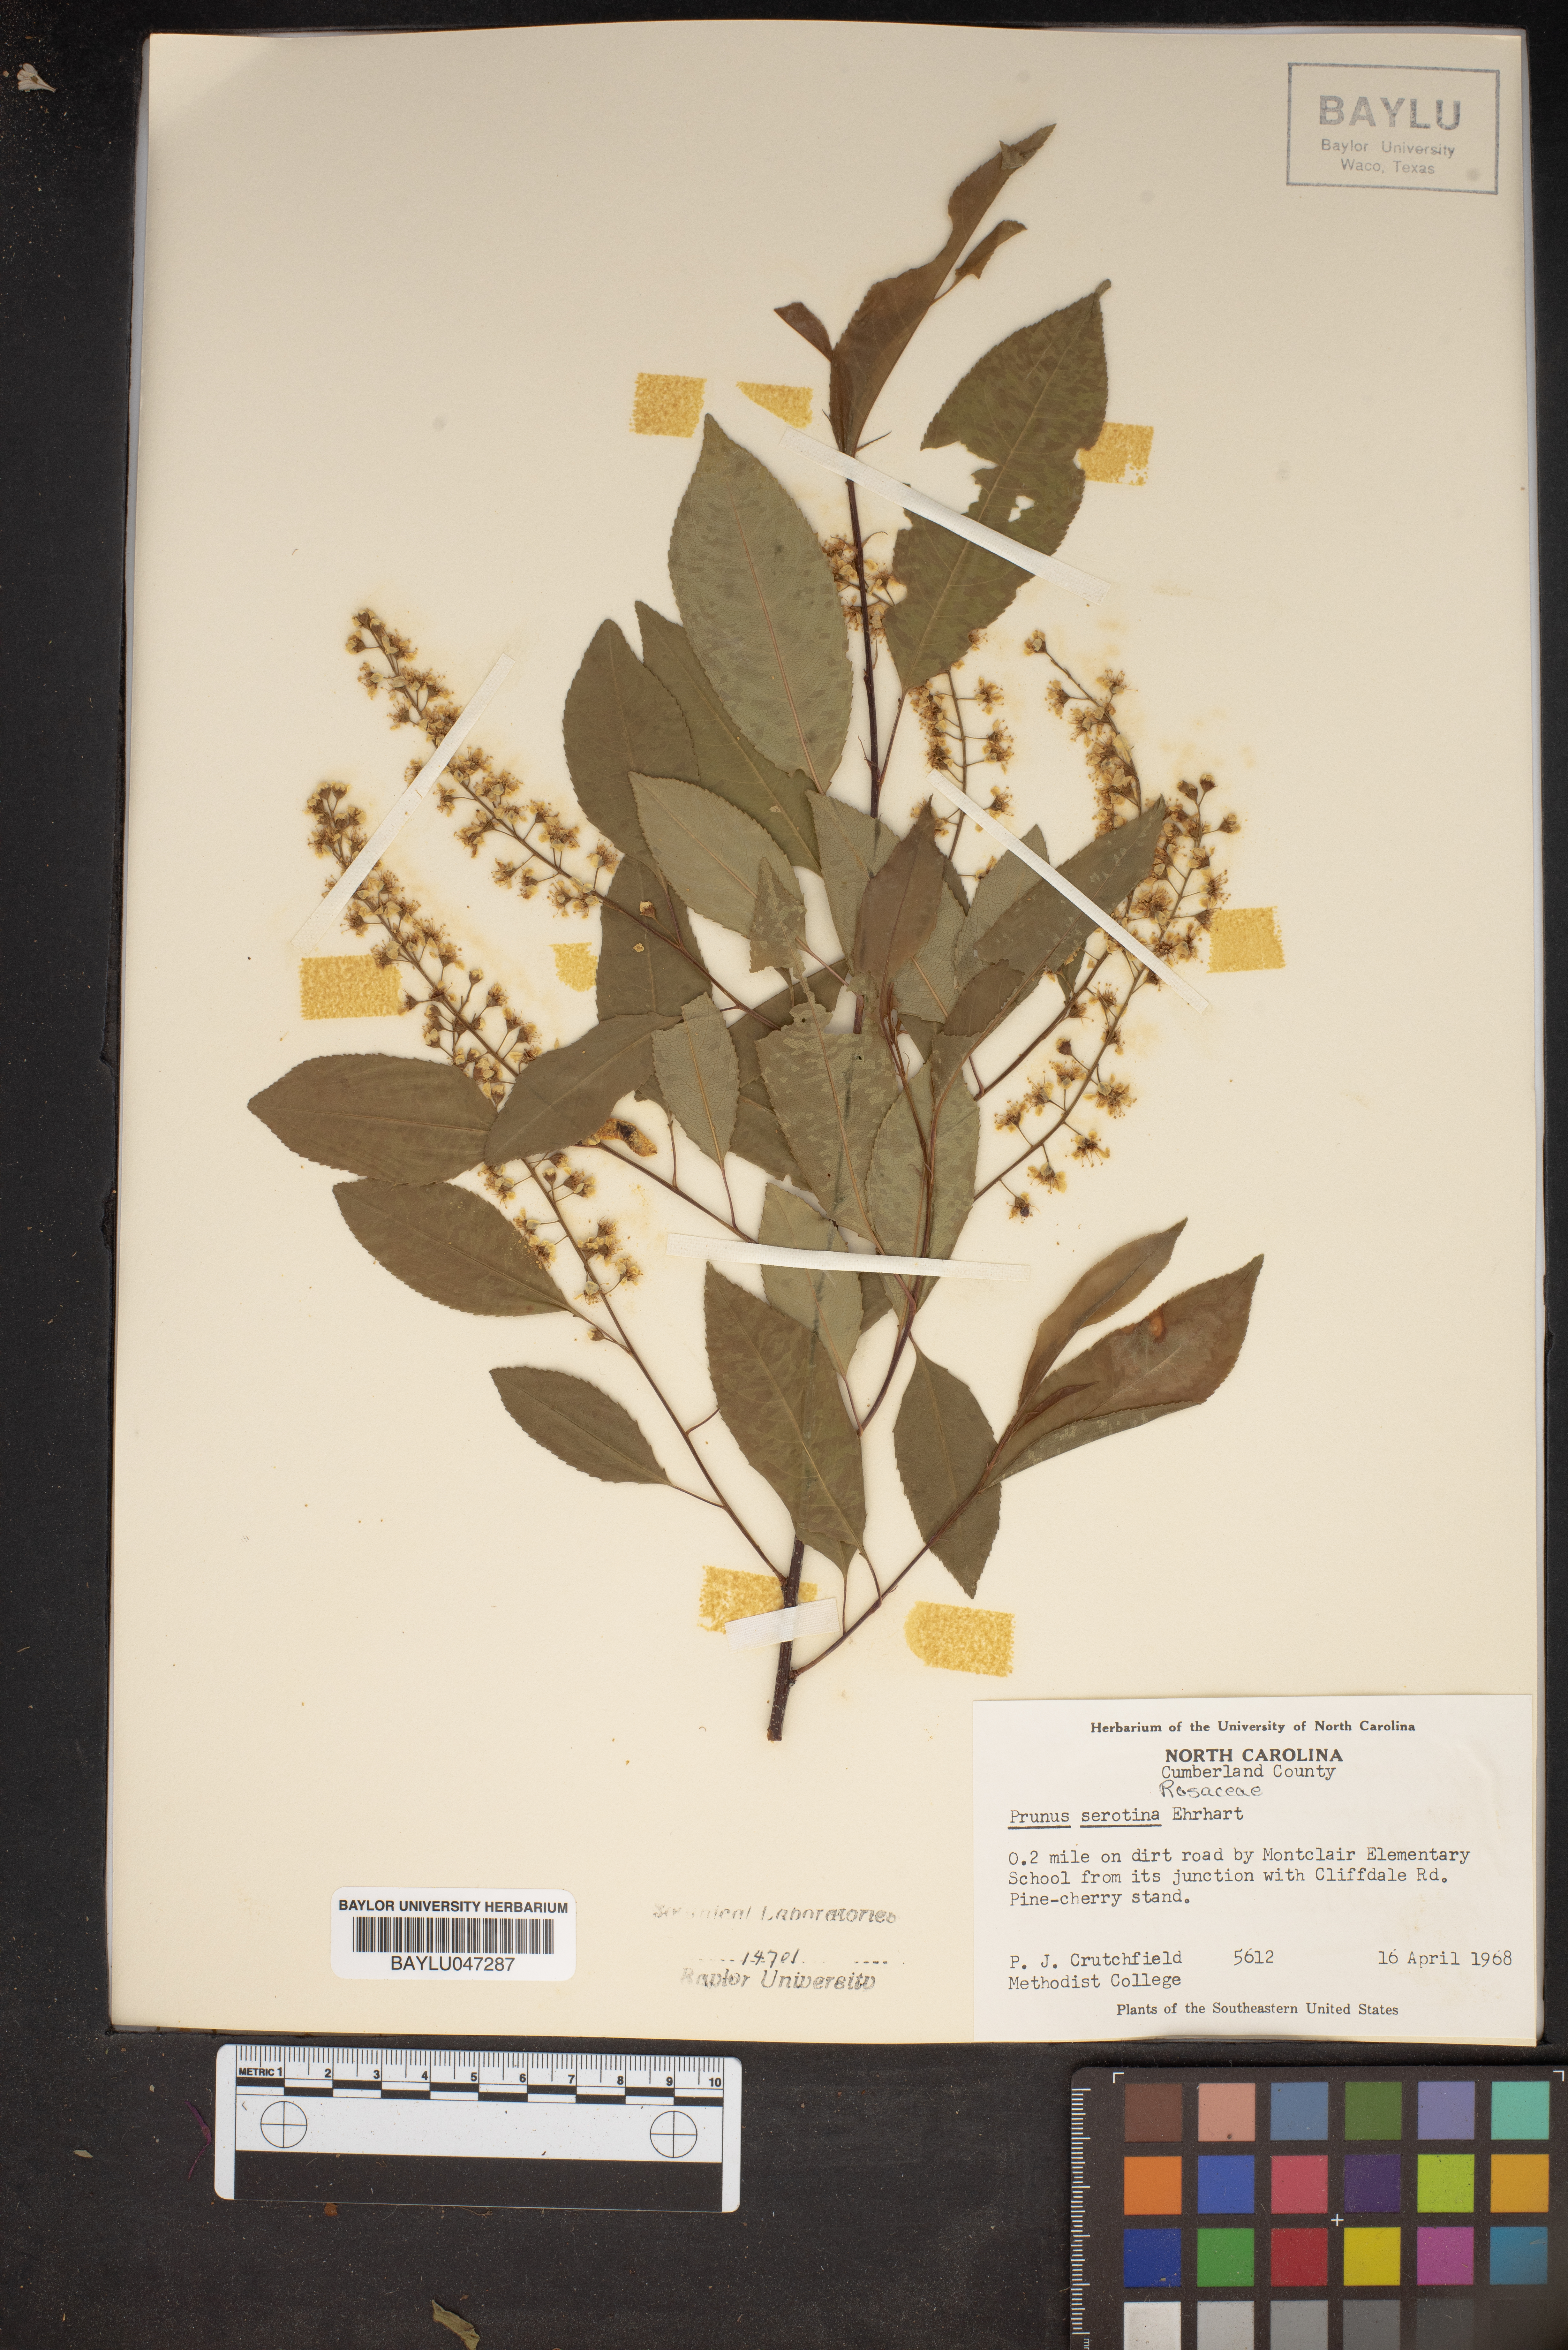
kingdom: Plantae
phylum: Tracheophyta
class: Magnoliopsida
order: Rosales
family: Rosaceae
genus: Prunus
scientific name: Prunus serotina
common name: Black cherry
